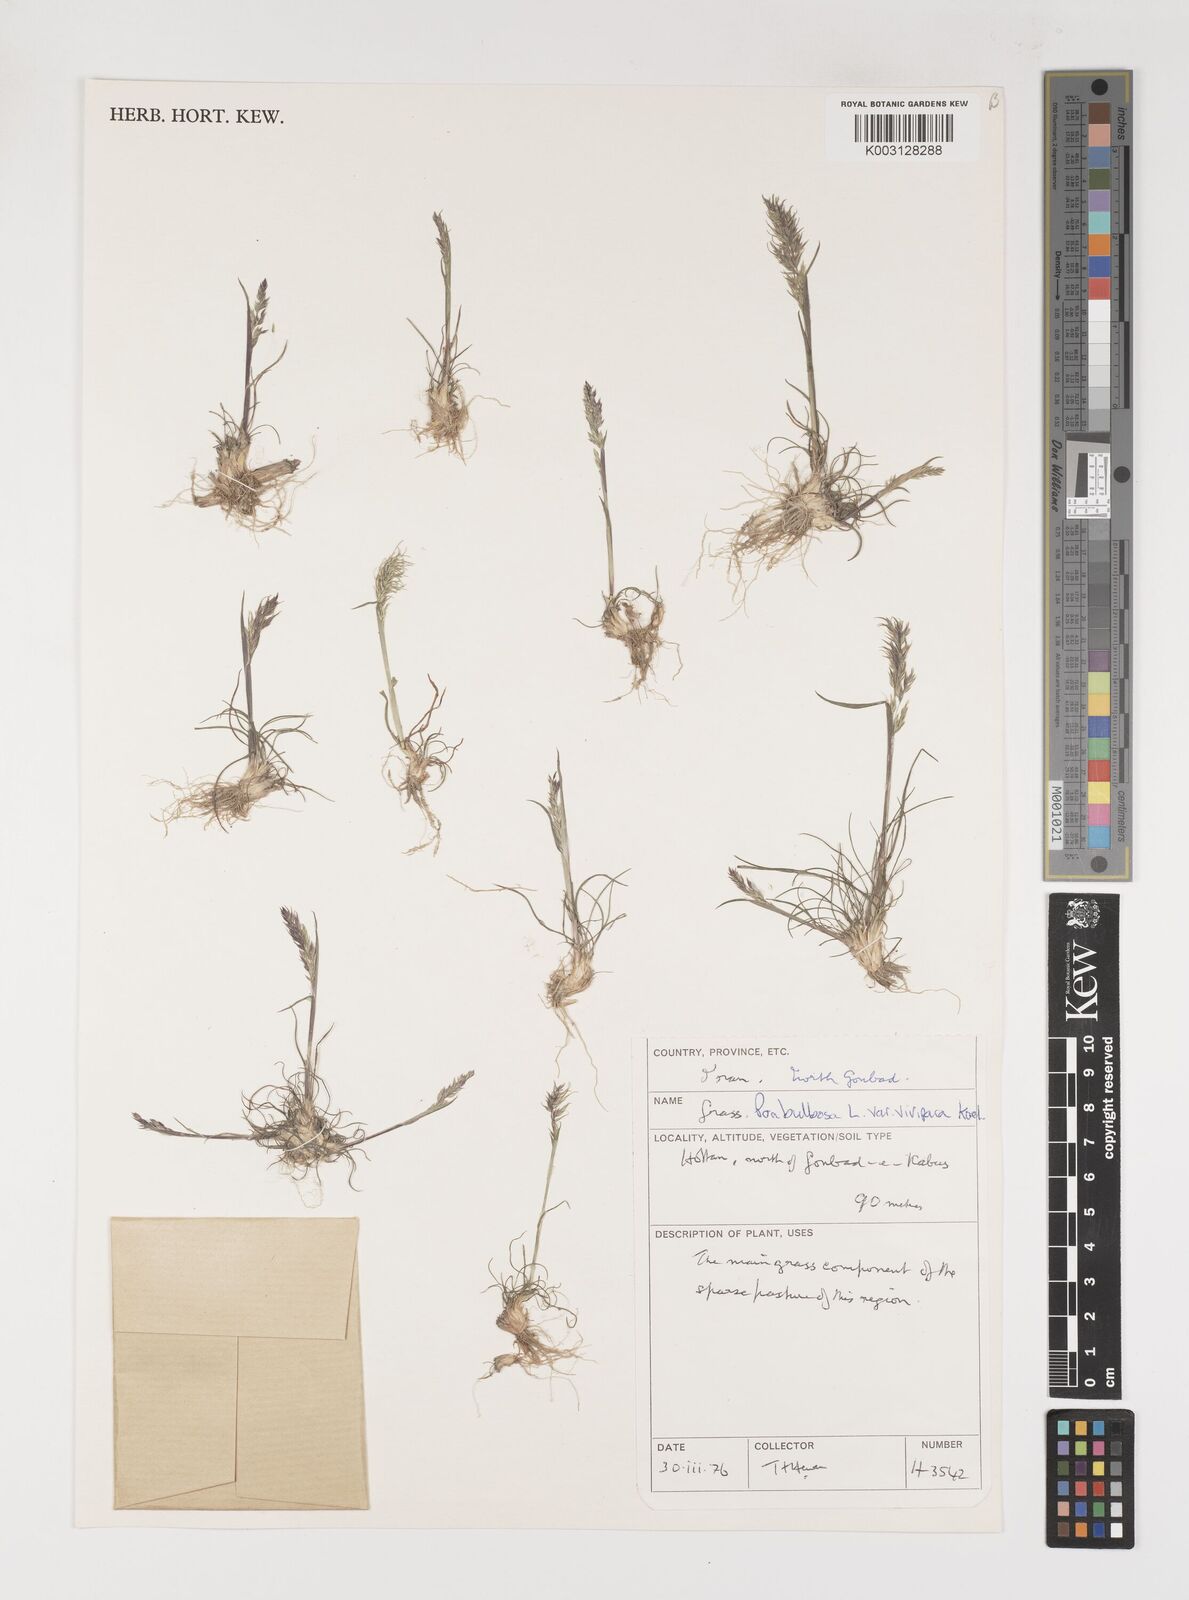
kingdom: Plantae
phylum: Tracheophyta
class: Liliopsida
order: Poales
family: Poaceae
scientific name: Poaceae
